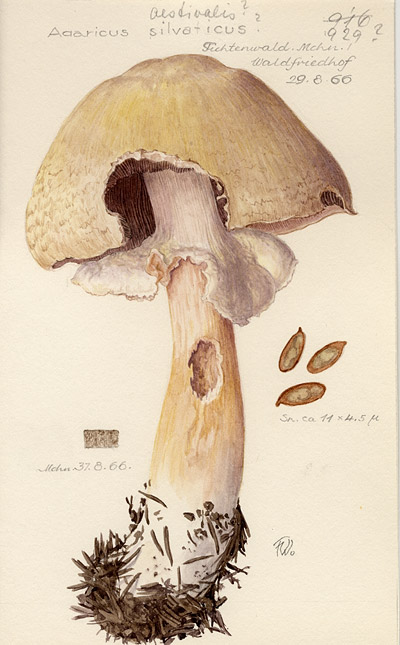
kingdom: Fungi
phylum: Basidiomycota
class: Agaricomycetes
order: Agaricales
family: Agaricaceae
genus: Agaricus
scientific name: Agaricus sylvaticus
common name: Blushing wood mushroom
